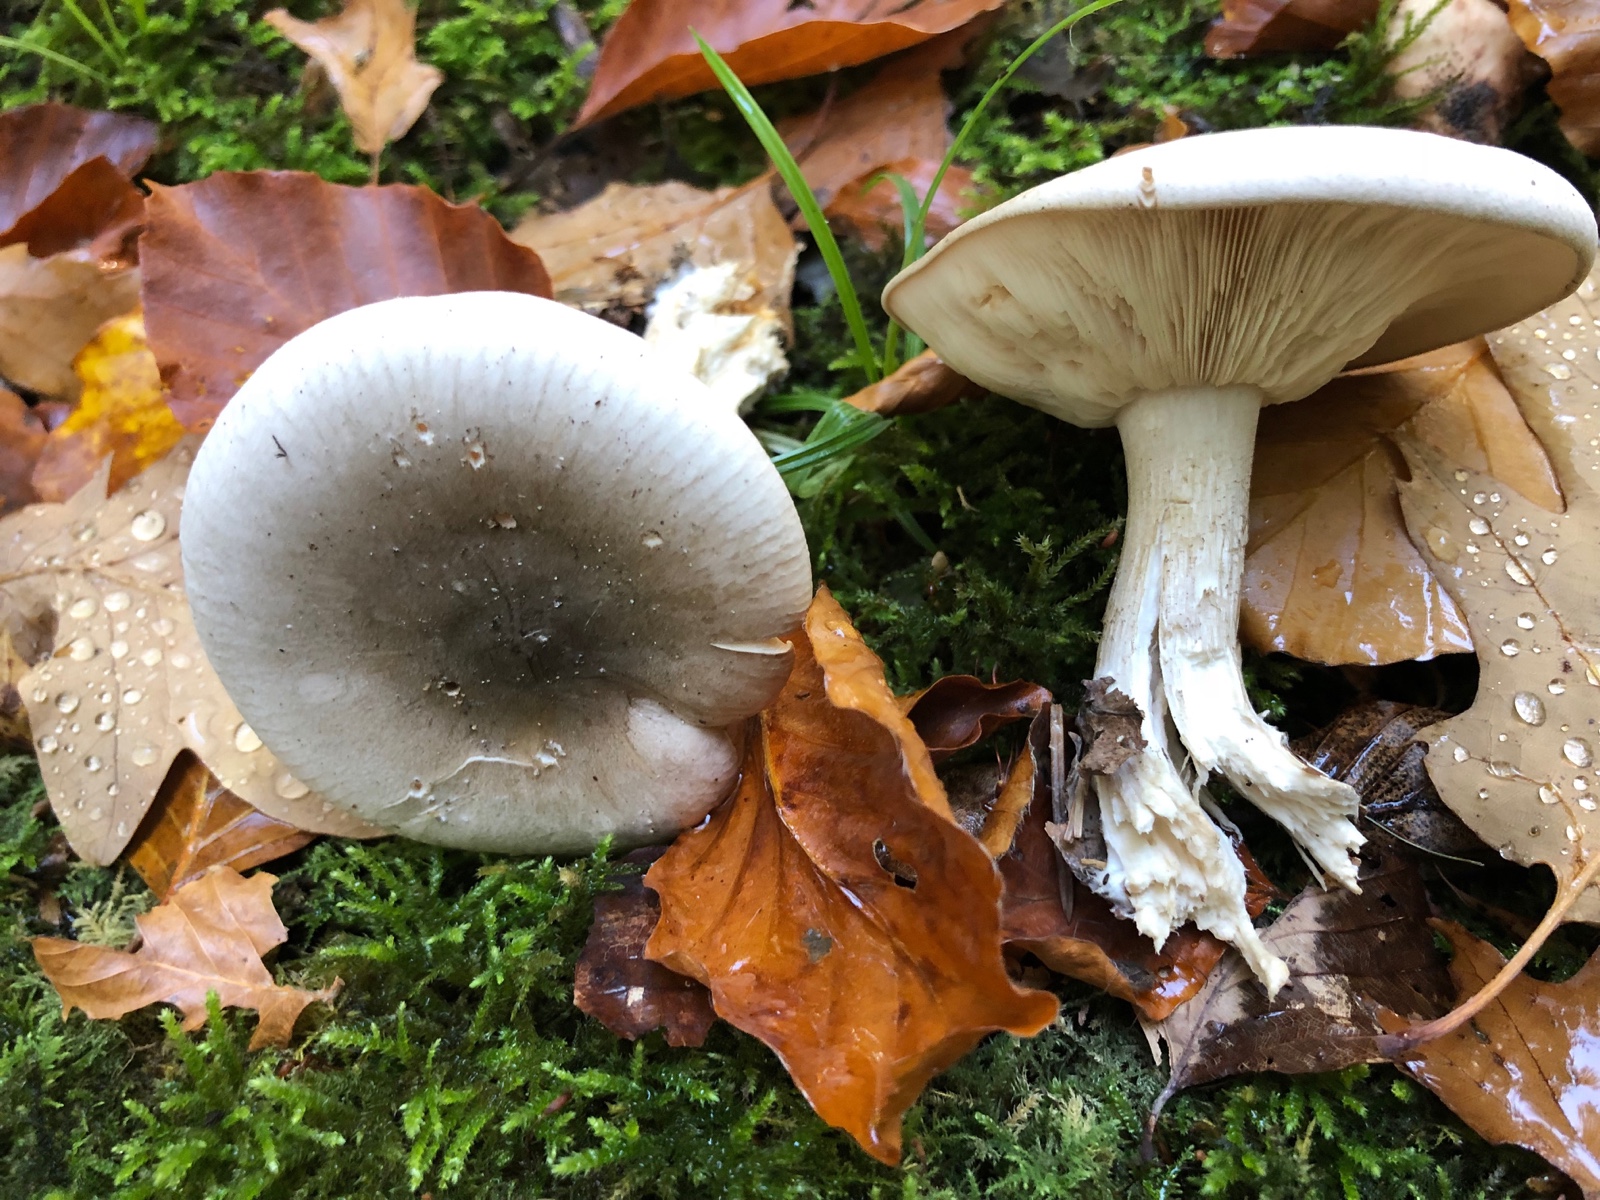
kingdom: Fungi
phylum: Basidiomycota
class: Agaricomycetes
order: Agaricales
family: Tricholomataceae
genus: Clitocybe
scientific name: Clitocybe nebularis
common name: tåge-tragthat
